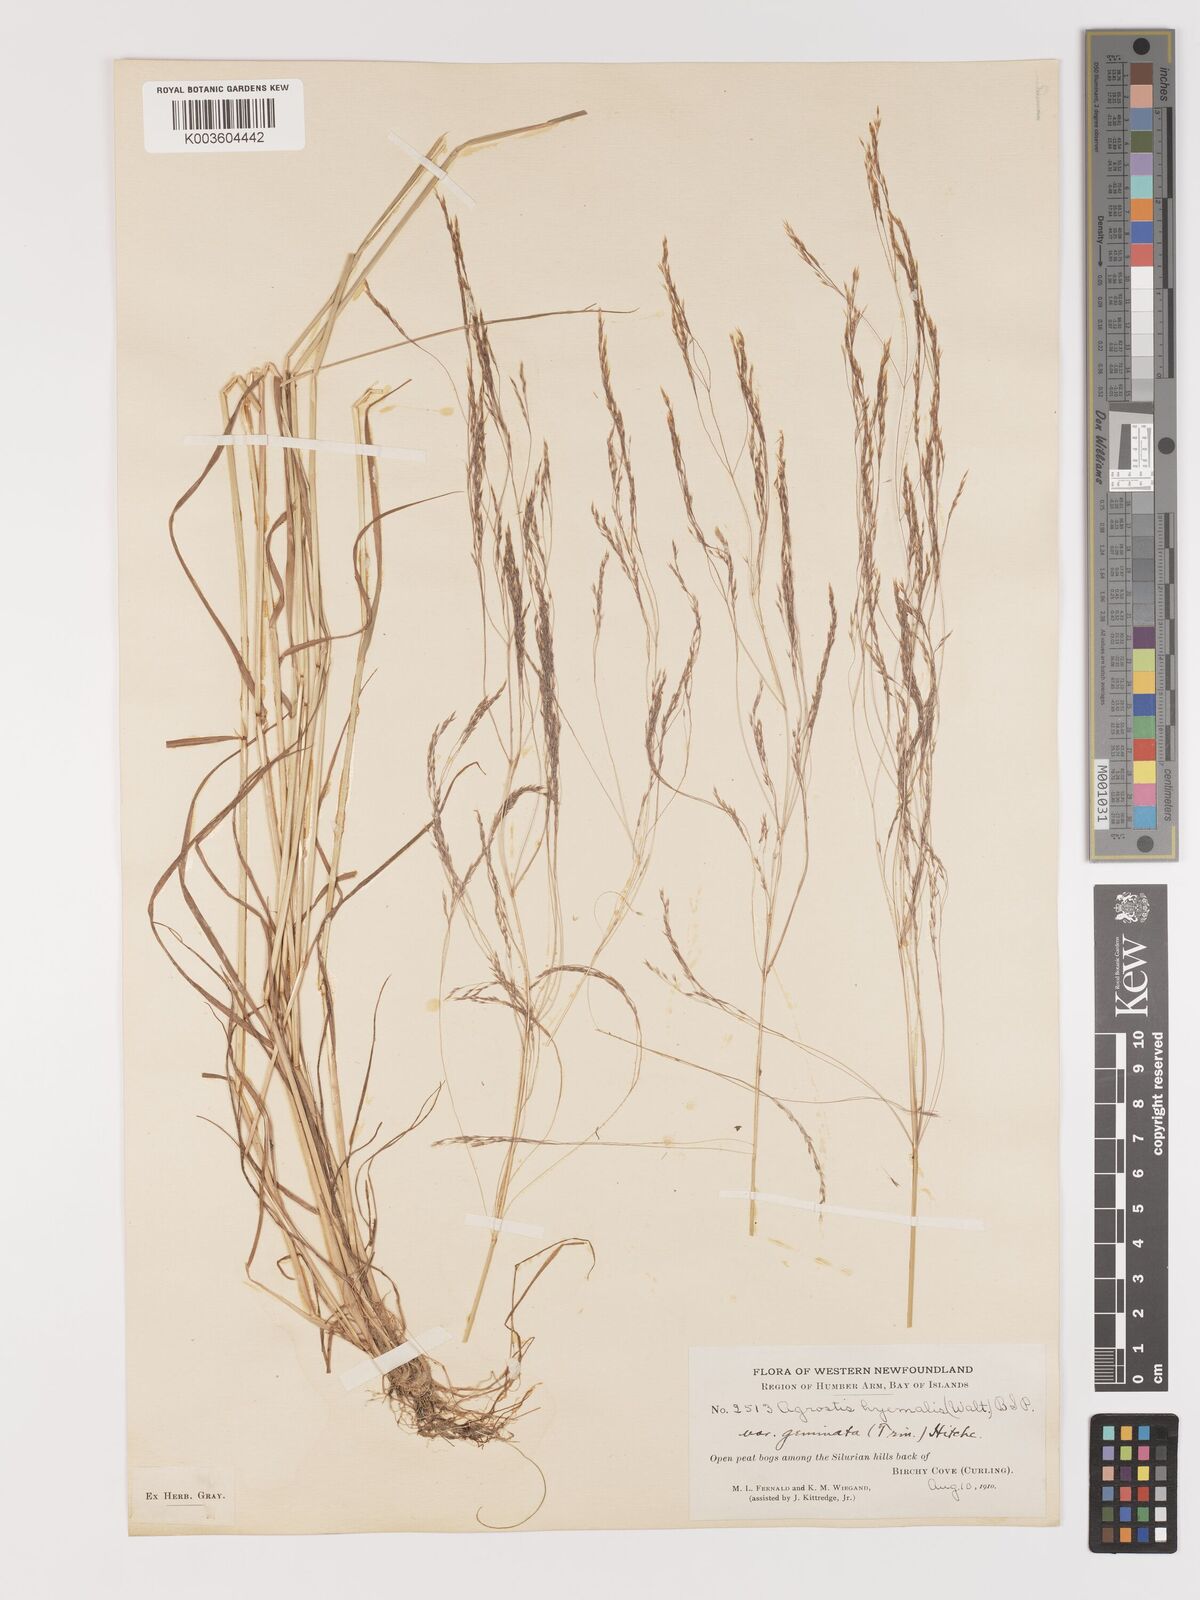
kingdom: Plantae
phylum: Tracheophyta
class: Liliopsida
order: Poales
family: Poaceae
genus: Agrostis
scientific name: Agrostis hyemalis
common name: Small bent
